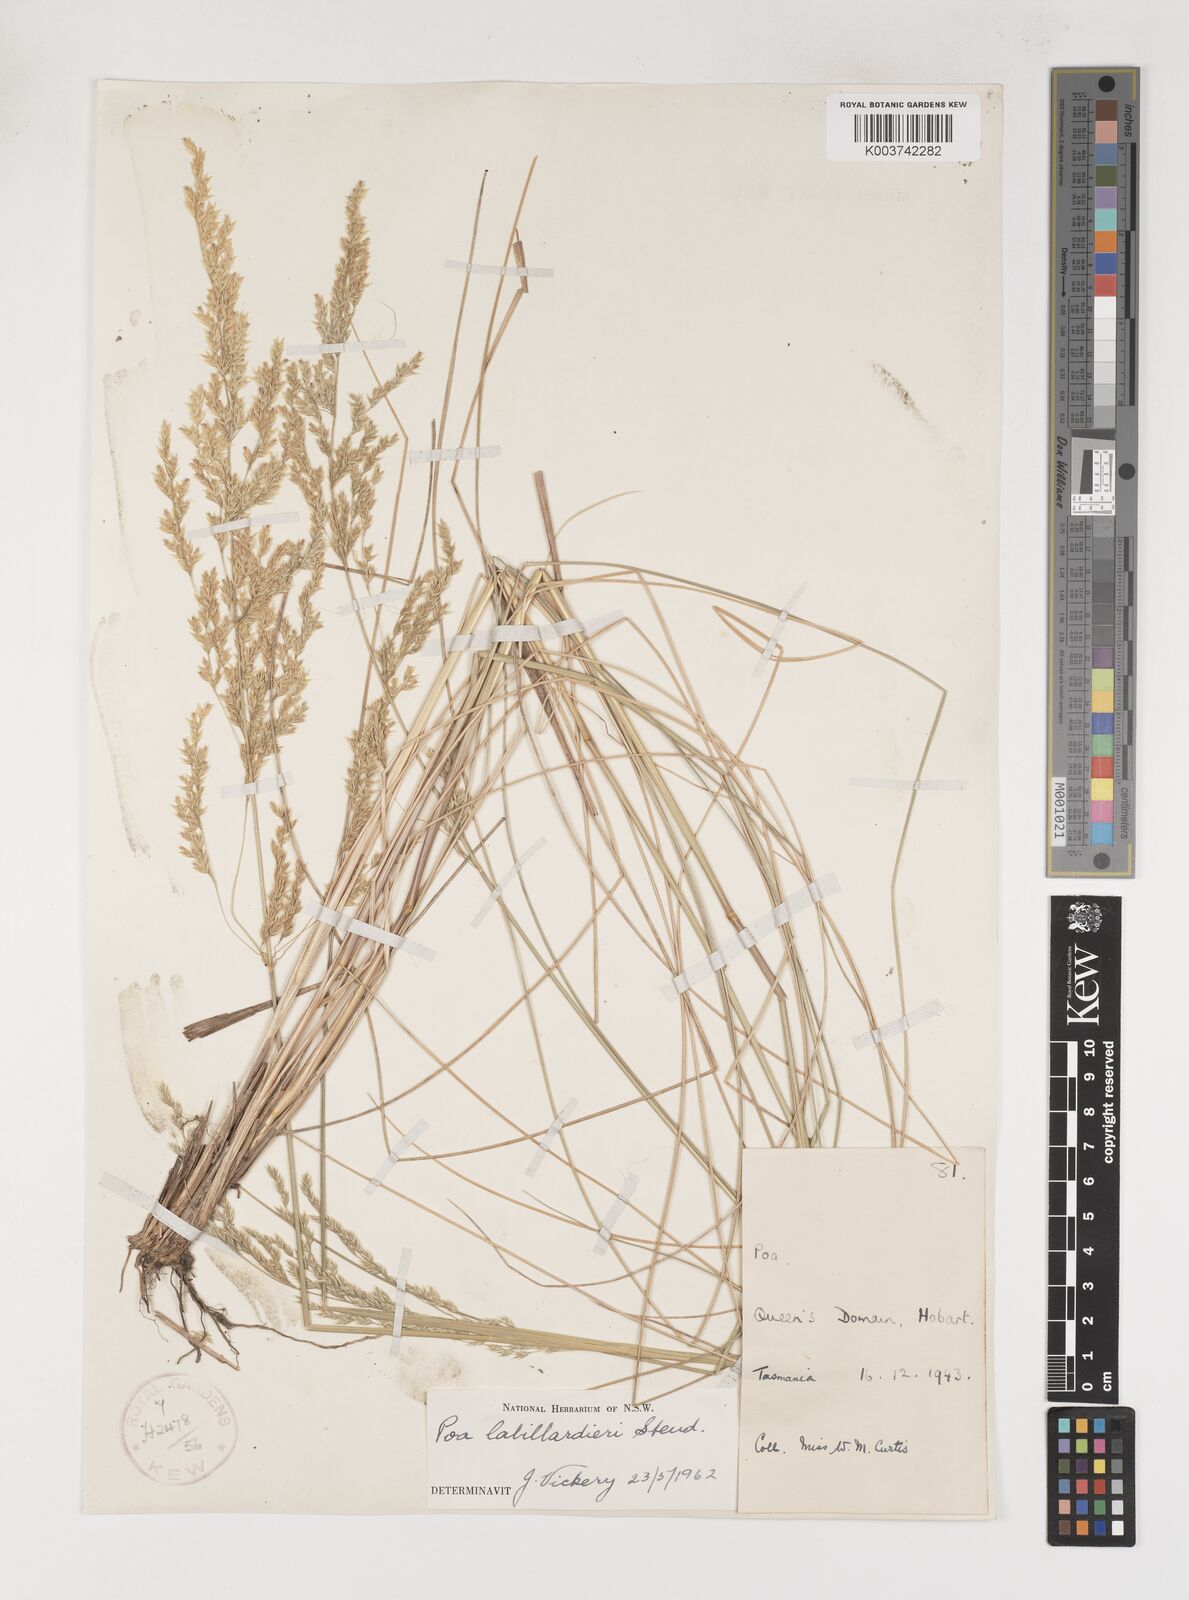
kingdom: Plantae
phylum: Tracheophyta
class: Liliopsida
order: Poales
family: Poaceae
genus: Poa
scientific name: Poa labillardierei
